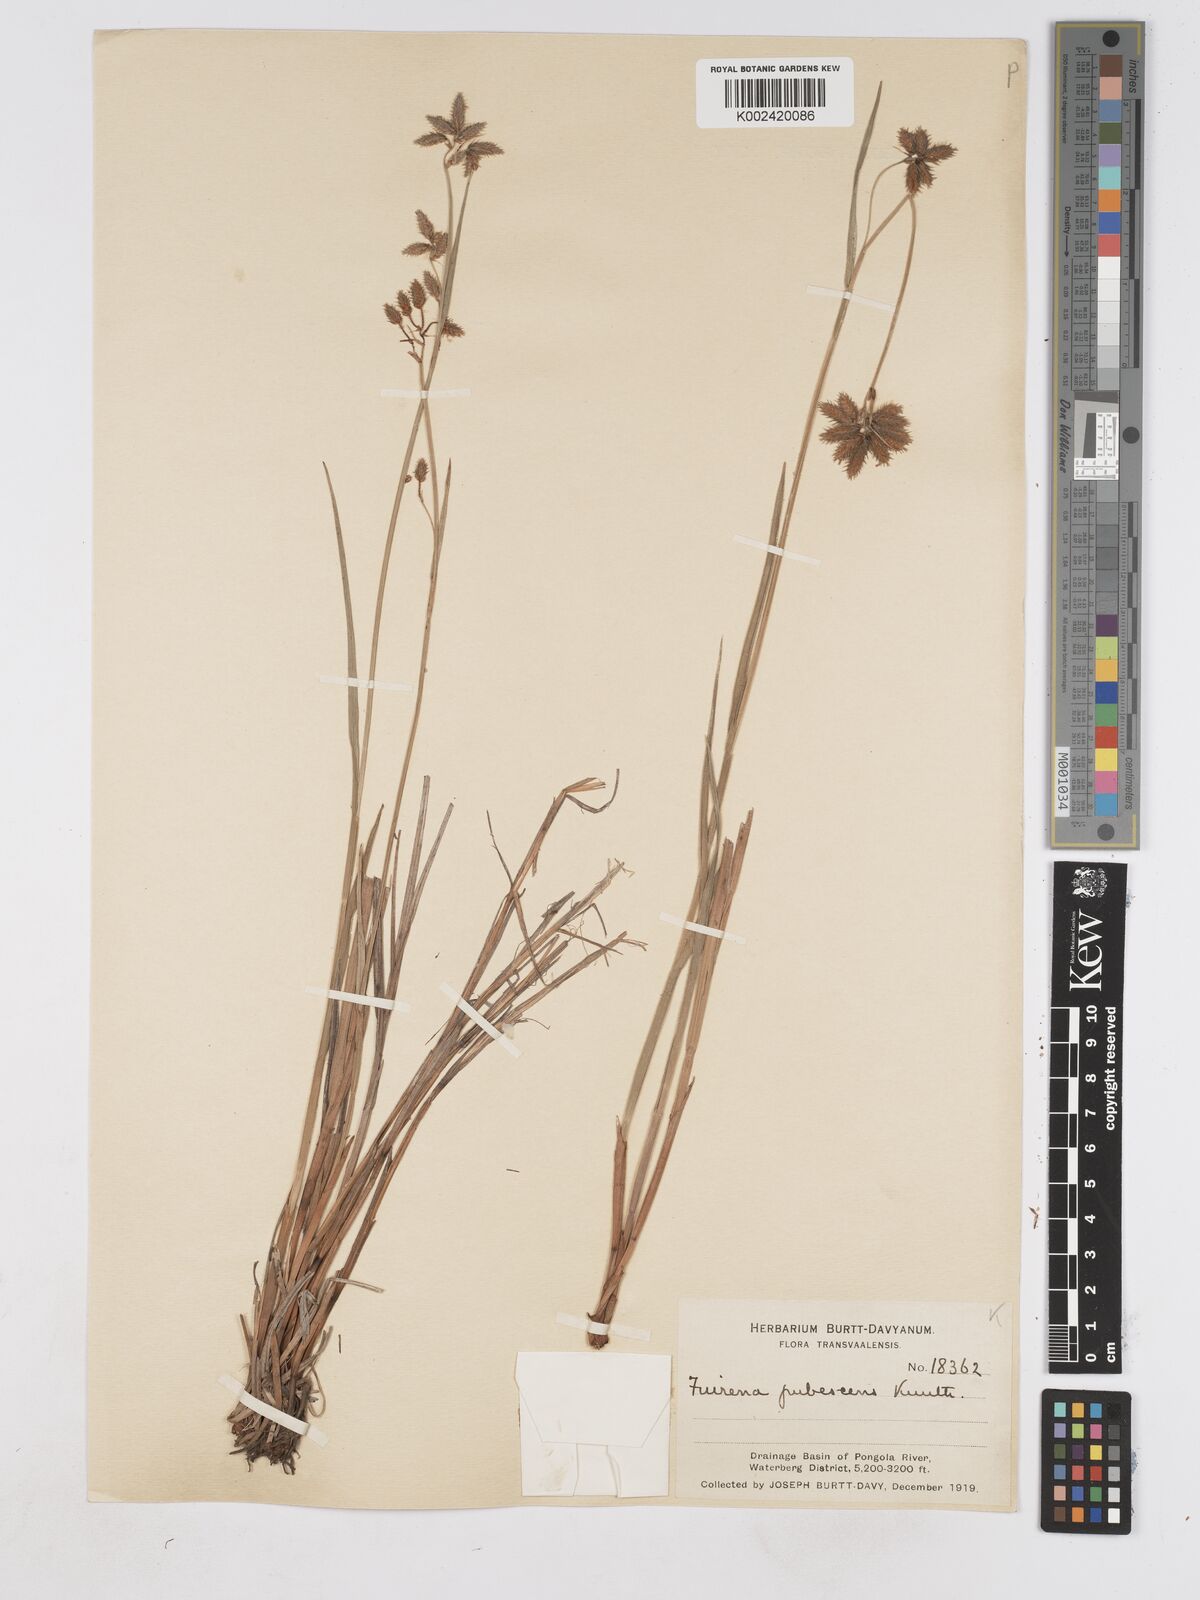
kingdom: Plantae
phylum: Tracheophyta
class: Liliopsida
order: Poales
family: Cyperaceae
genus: Fuirena
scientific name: Fuirena pubescens
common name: Hairy sedge
